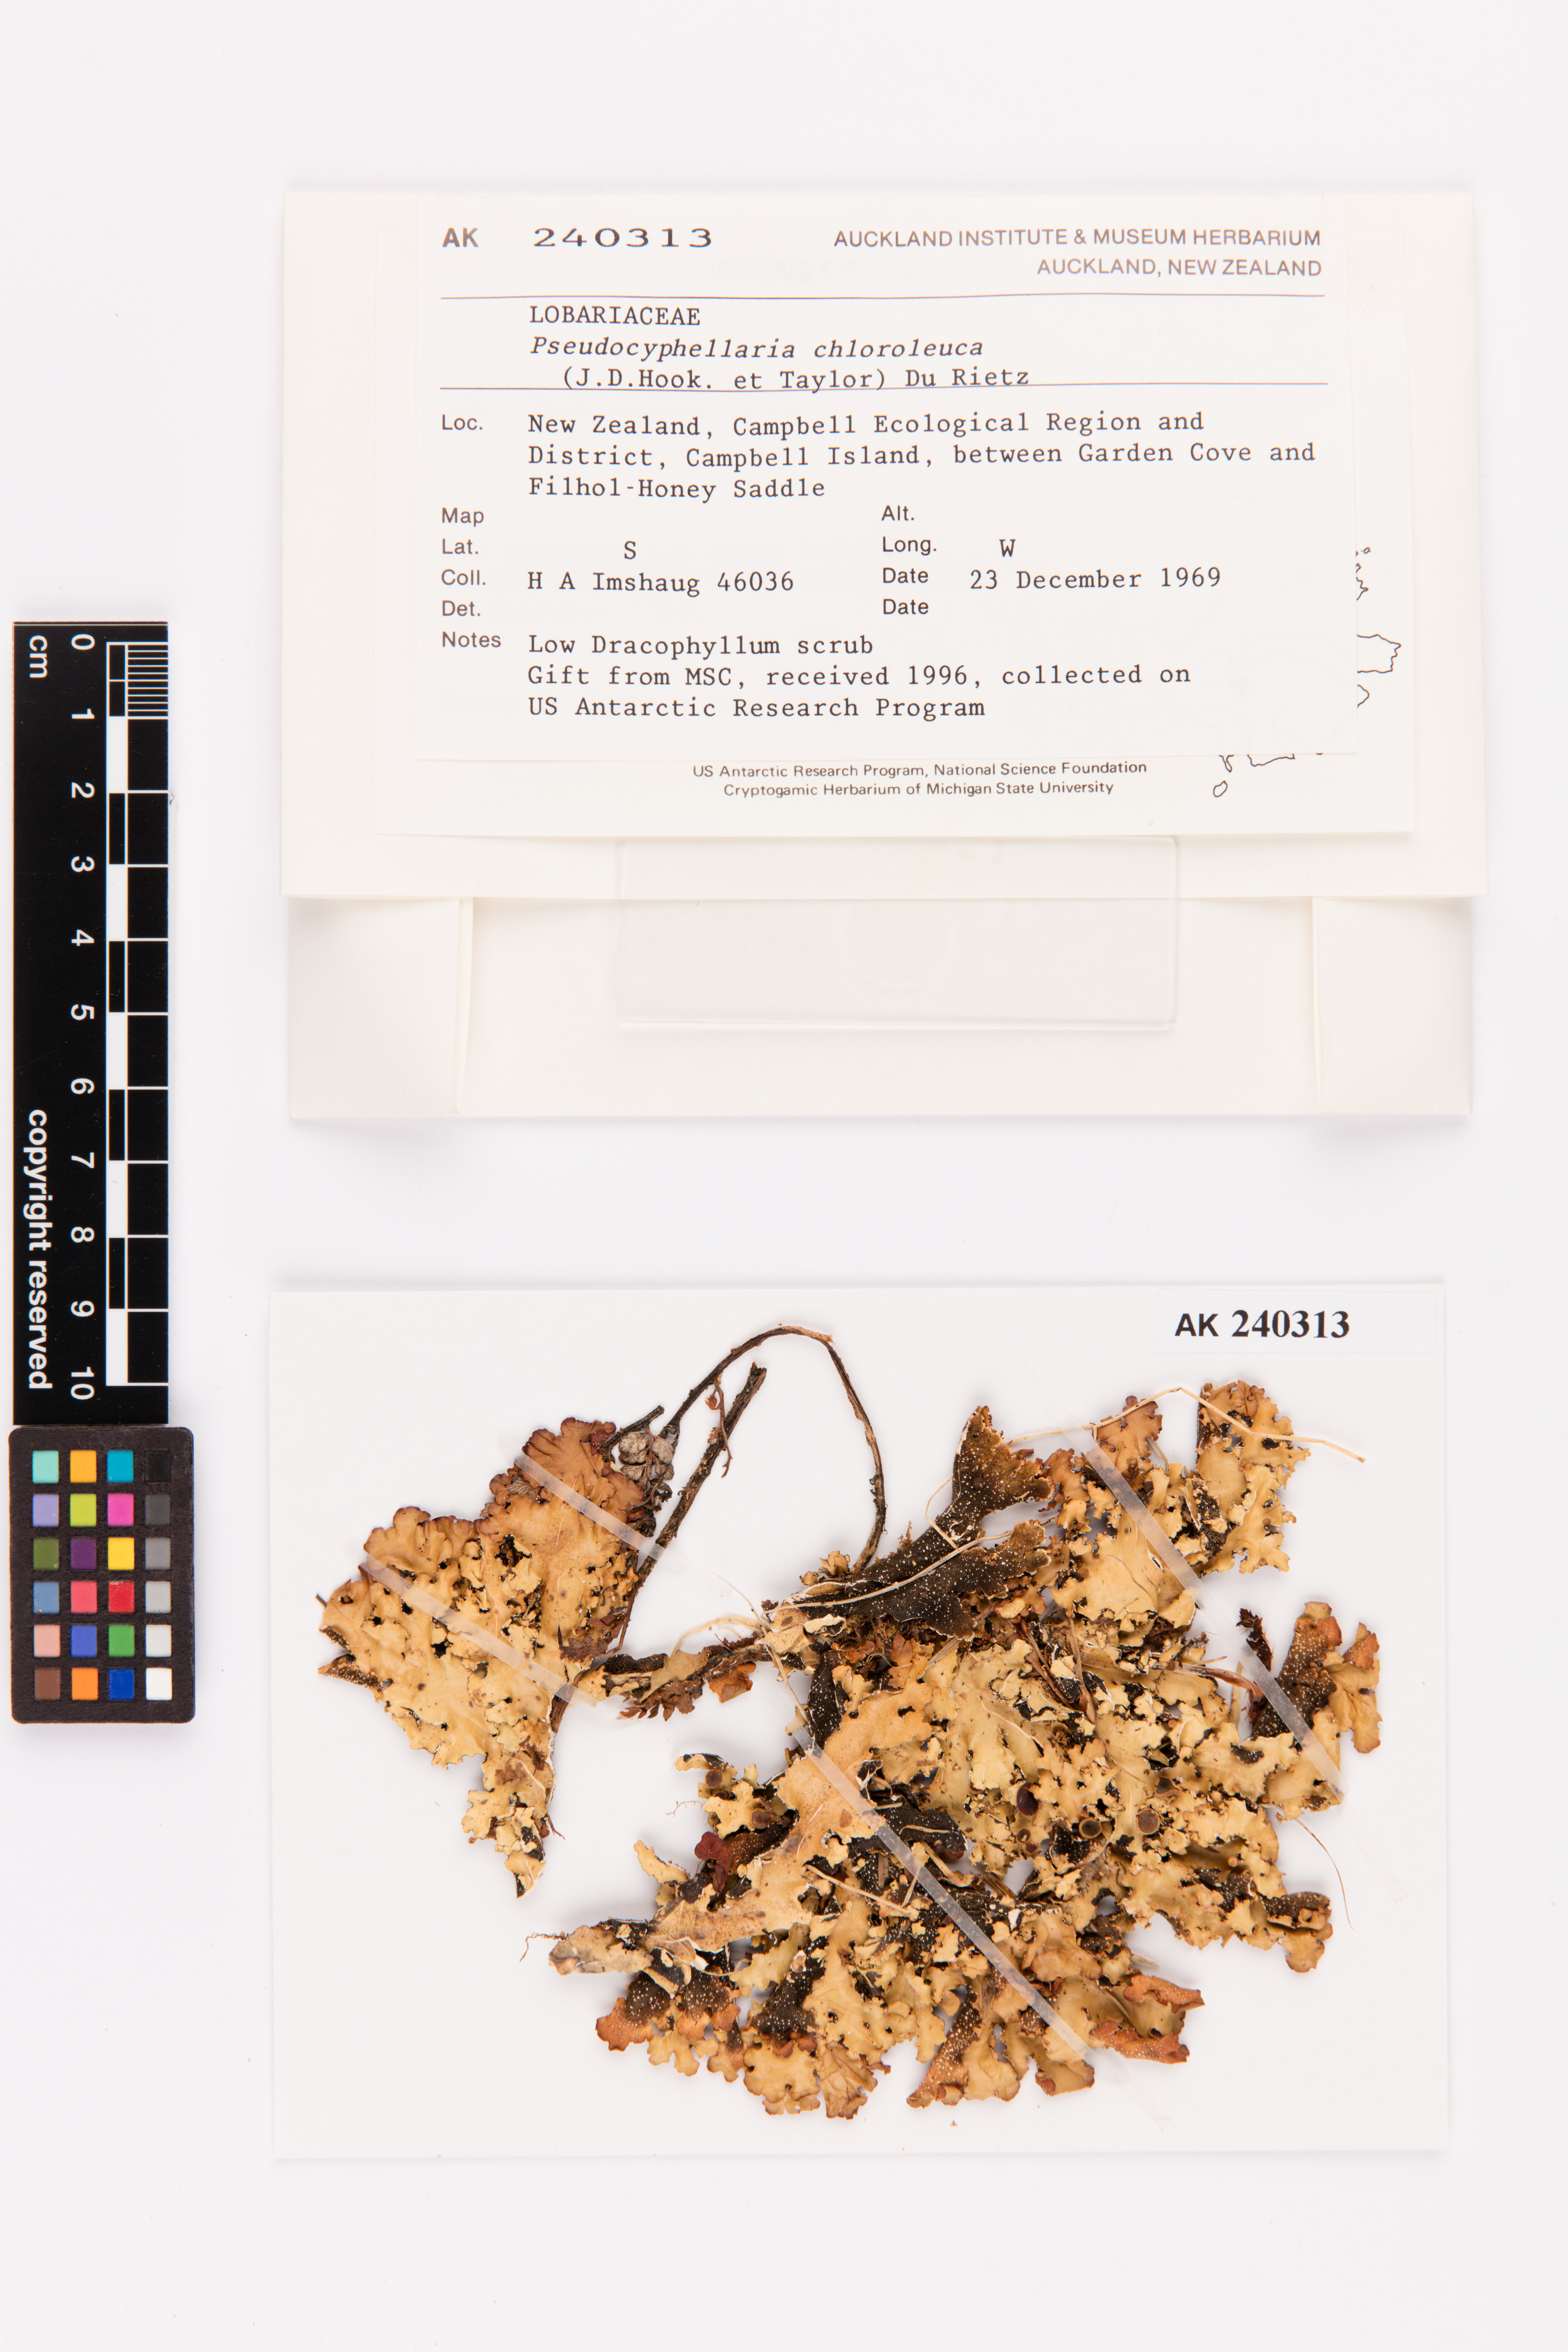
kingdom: Fungi
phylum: Ascomycota
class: Lecanoromycetes
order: Peltigerales
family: Lobariaceae
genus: Pseudocyphellaria
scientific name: Pseudocyphellaria chloroleuca
